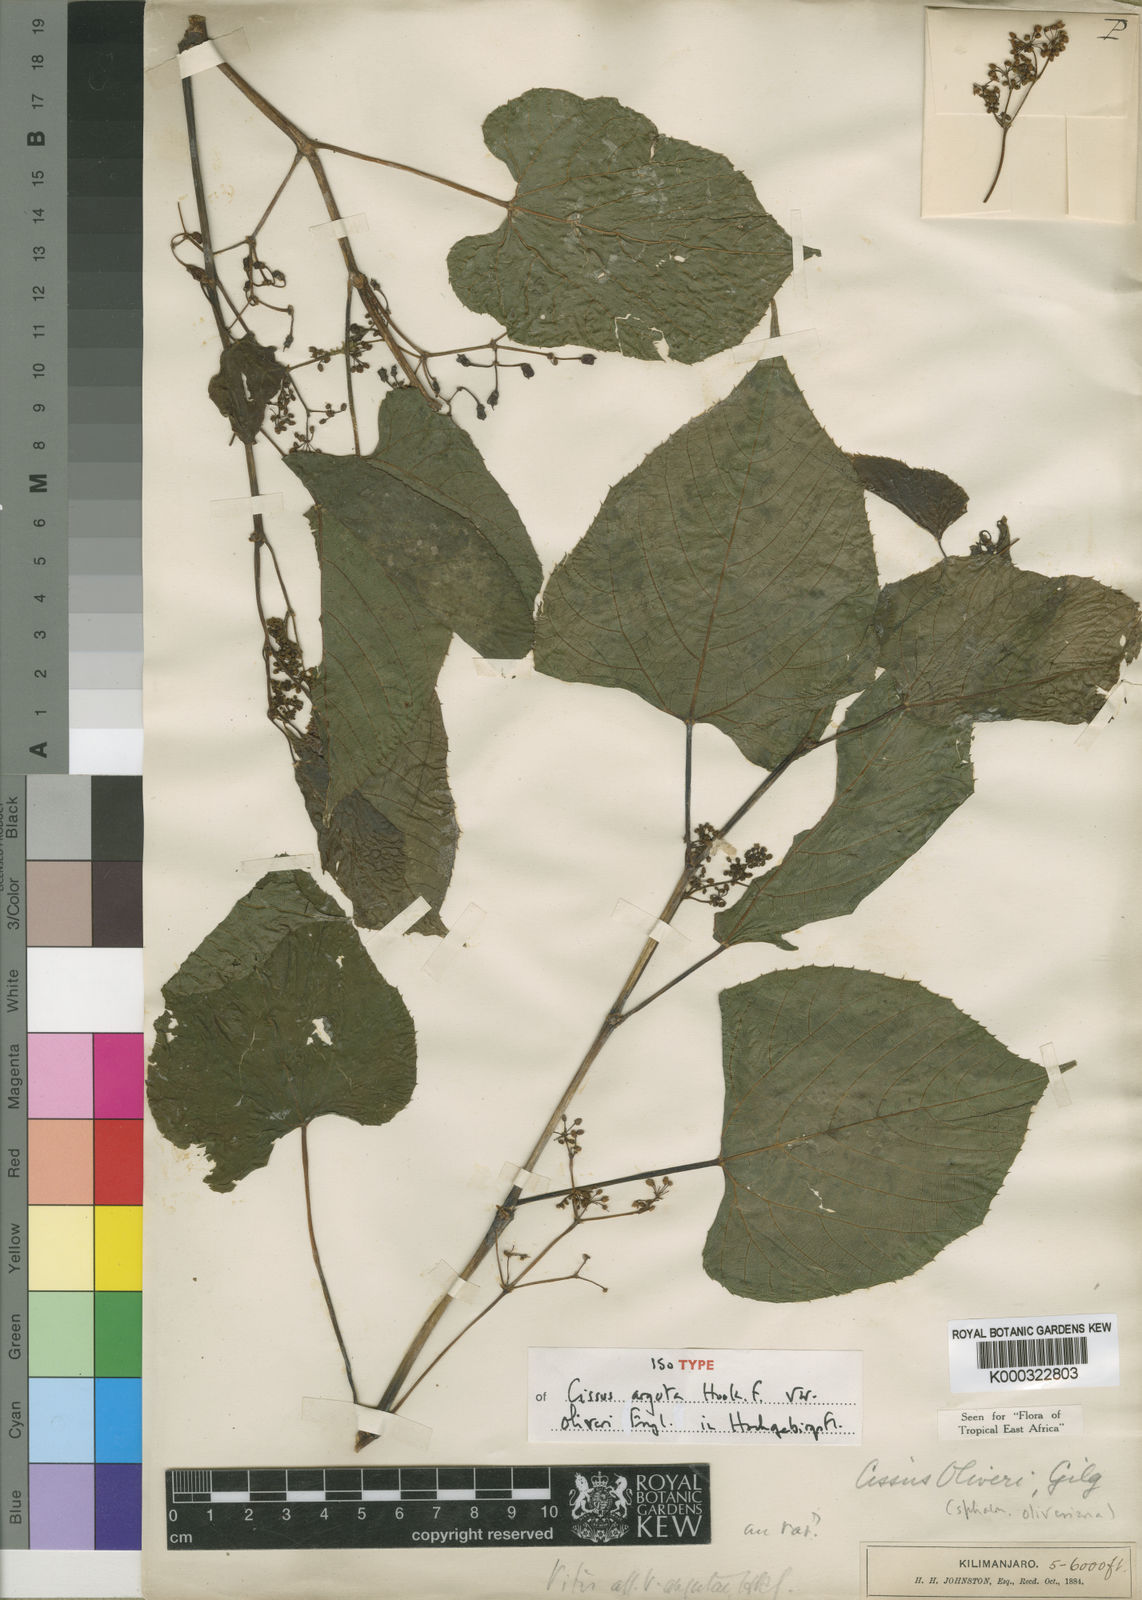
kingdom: Plantae
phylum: Tracheophyta
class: Magnoliopsida
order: Vitales
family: Vitaceae
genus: Cissus
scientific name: Cissus oliveri
